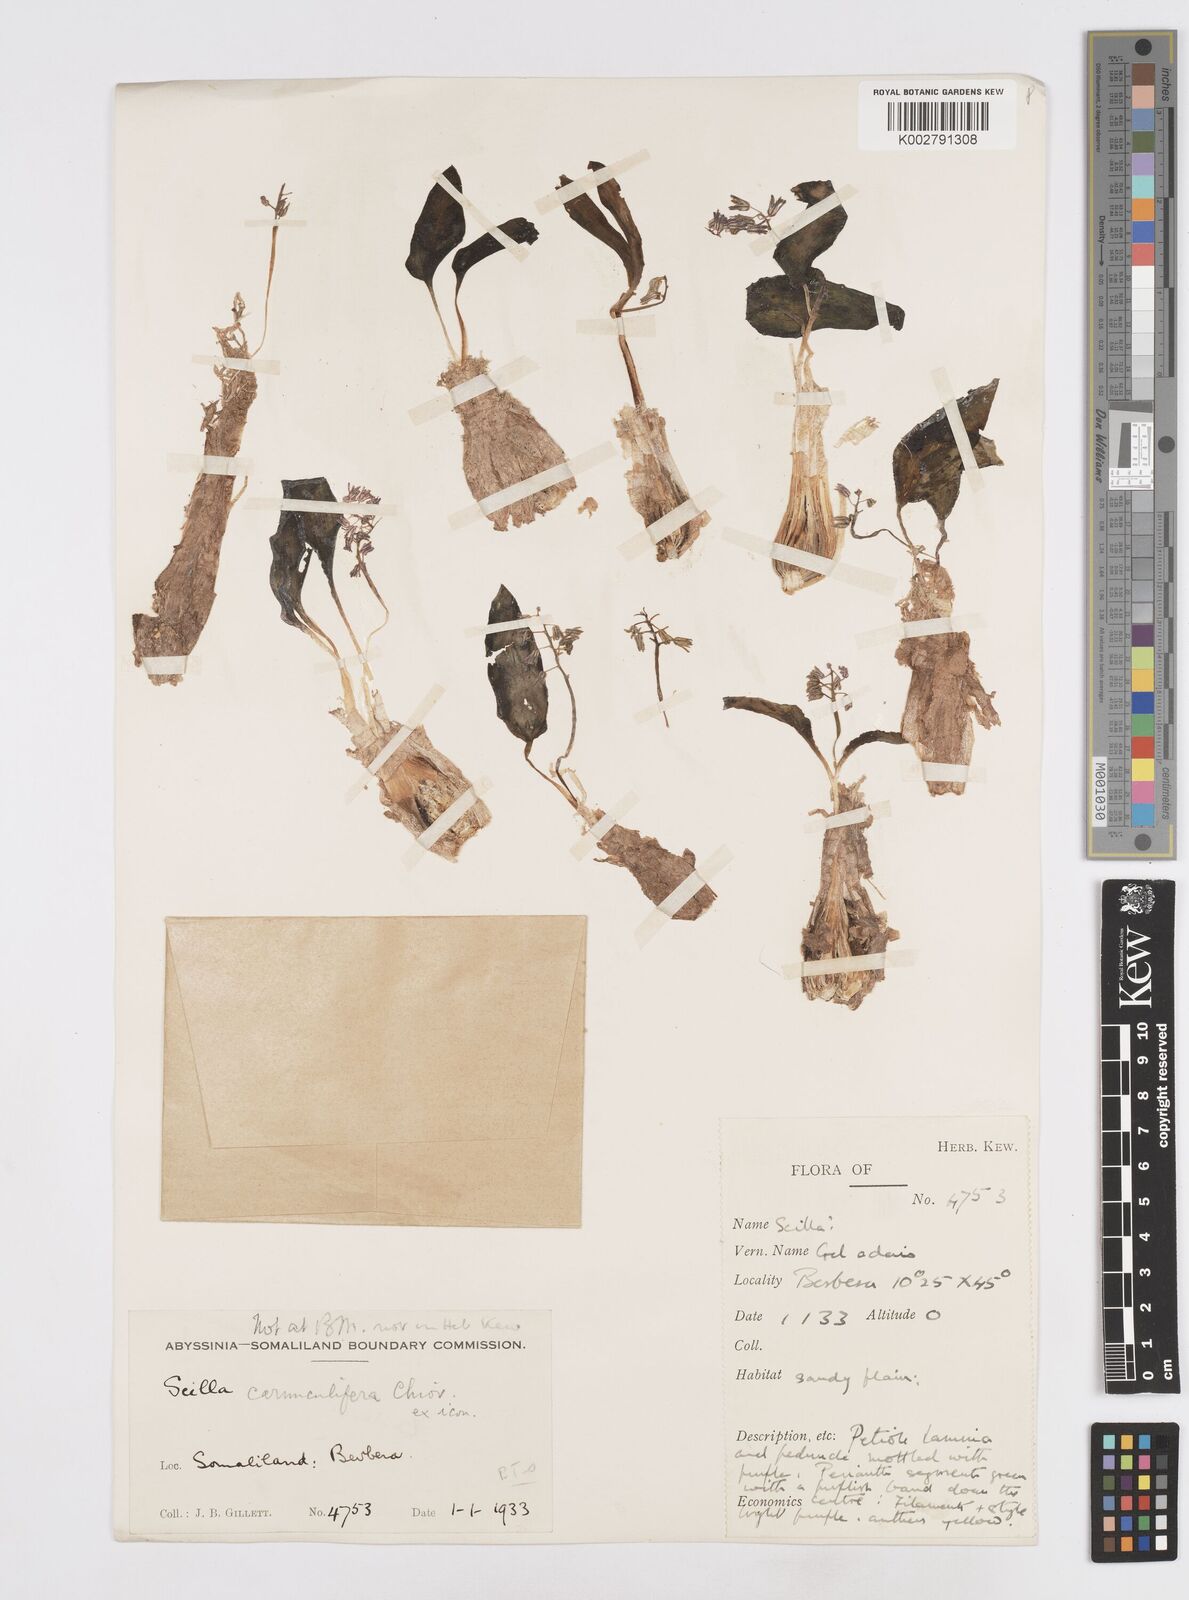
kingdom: Plantae
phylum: Tracheophyta
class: Liliopsida
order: Asparagales
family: Asparagaceae
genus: Scilla
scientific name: Scilla
